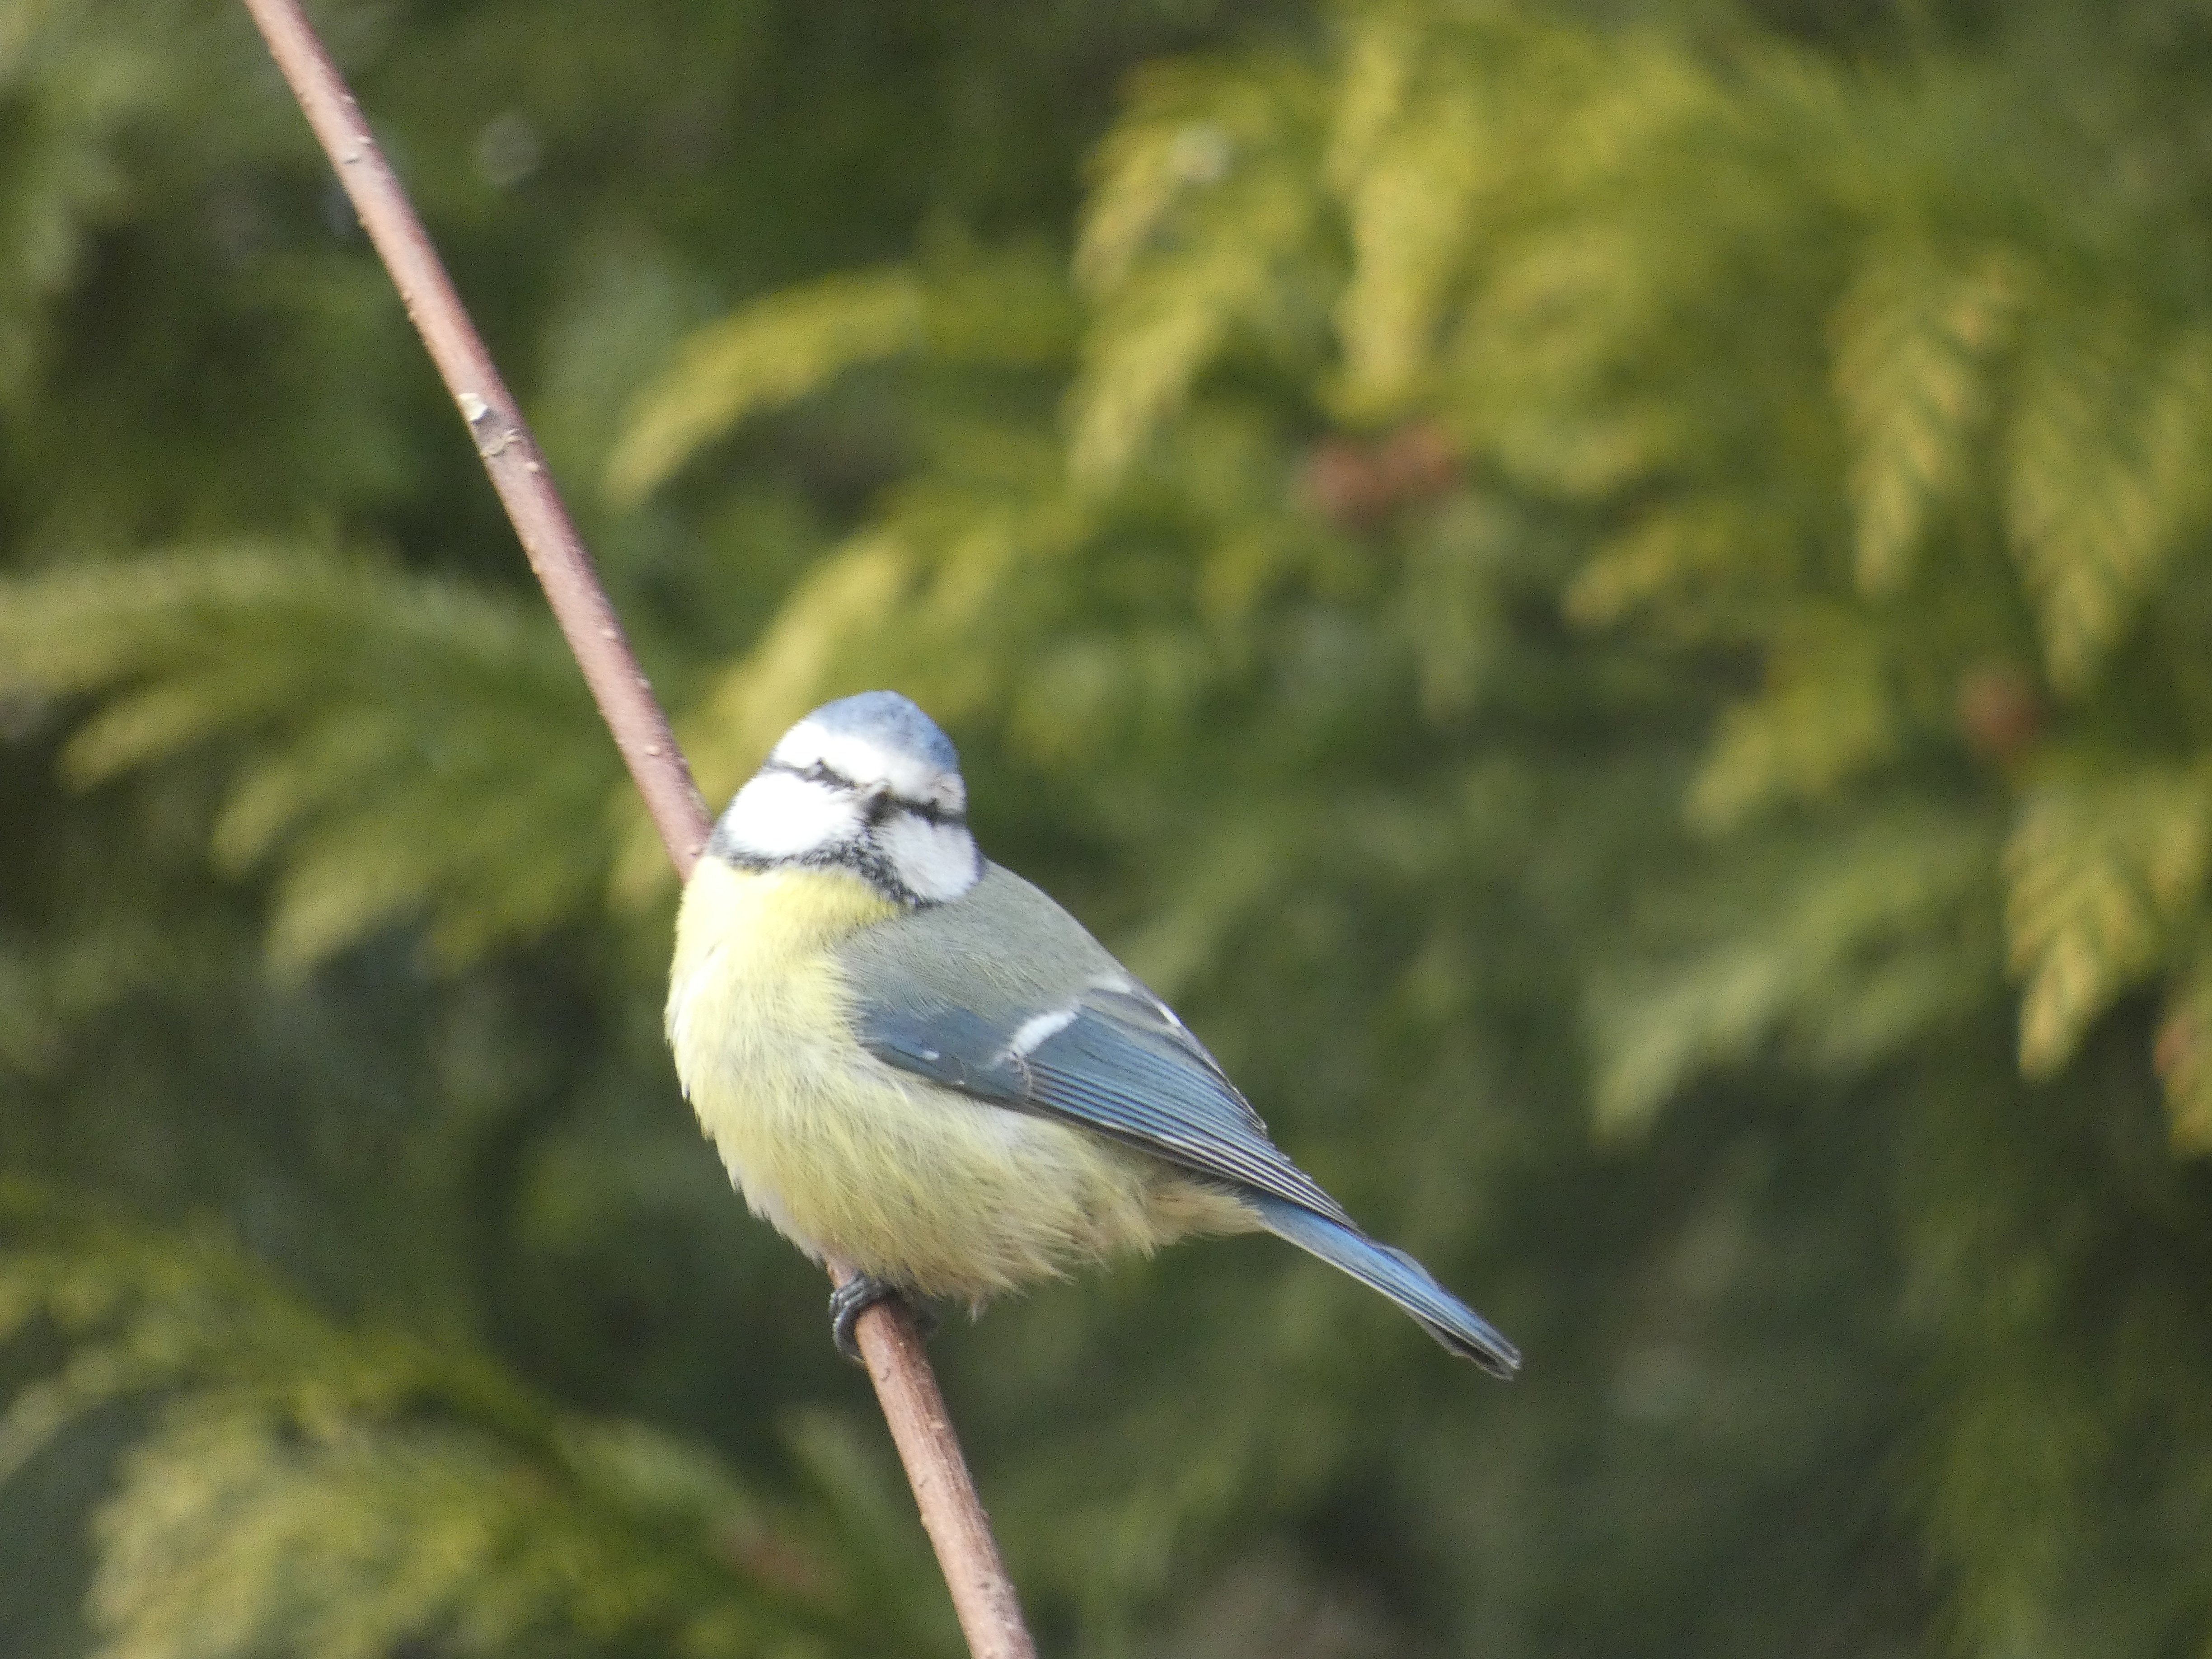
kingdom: Animalia
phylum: Chordata
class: Aves
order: Passeriformes
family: Paridae
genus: Cyanistes
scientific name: Cyanistes caeruleus
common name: Blåmejse
